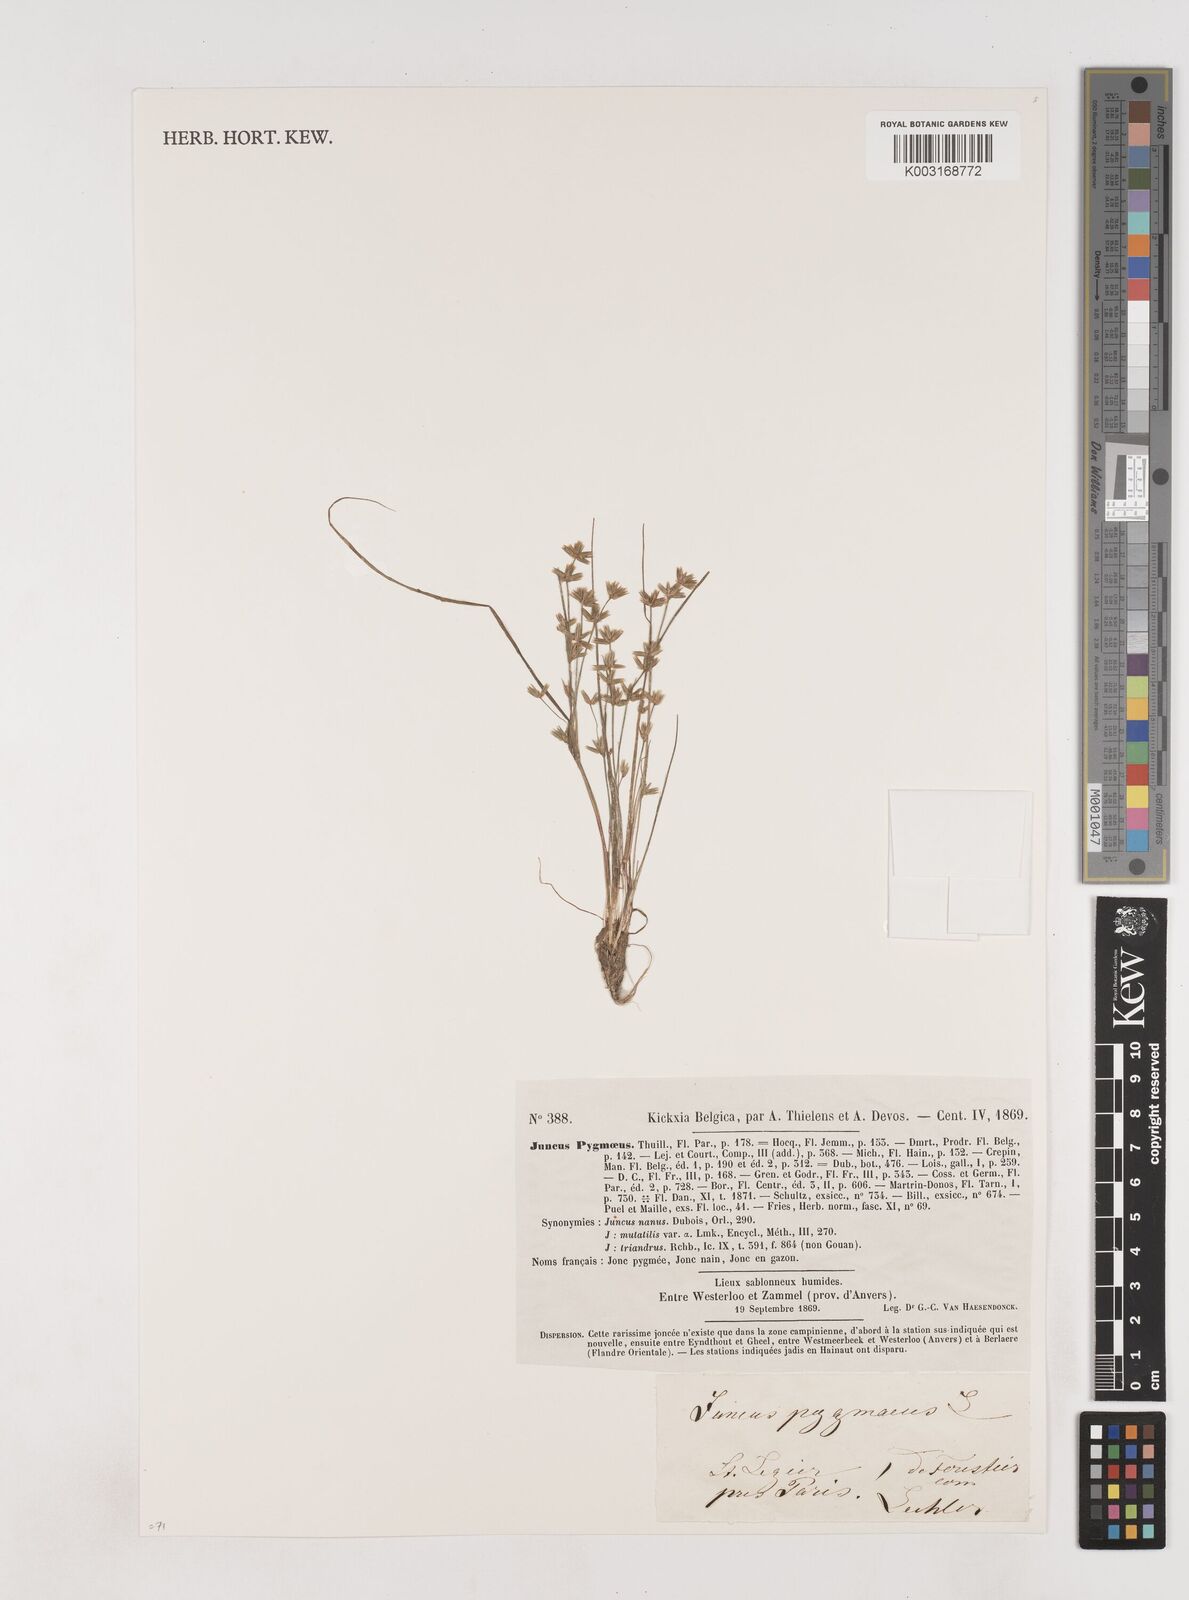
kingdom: Plantae
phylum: Tracheophyta
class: Liliopsida
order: Poales
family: Juncaceae
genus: Juncus
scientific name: Juncus pygmaeus
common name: Pigmy rush
